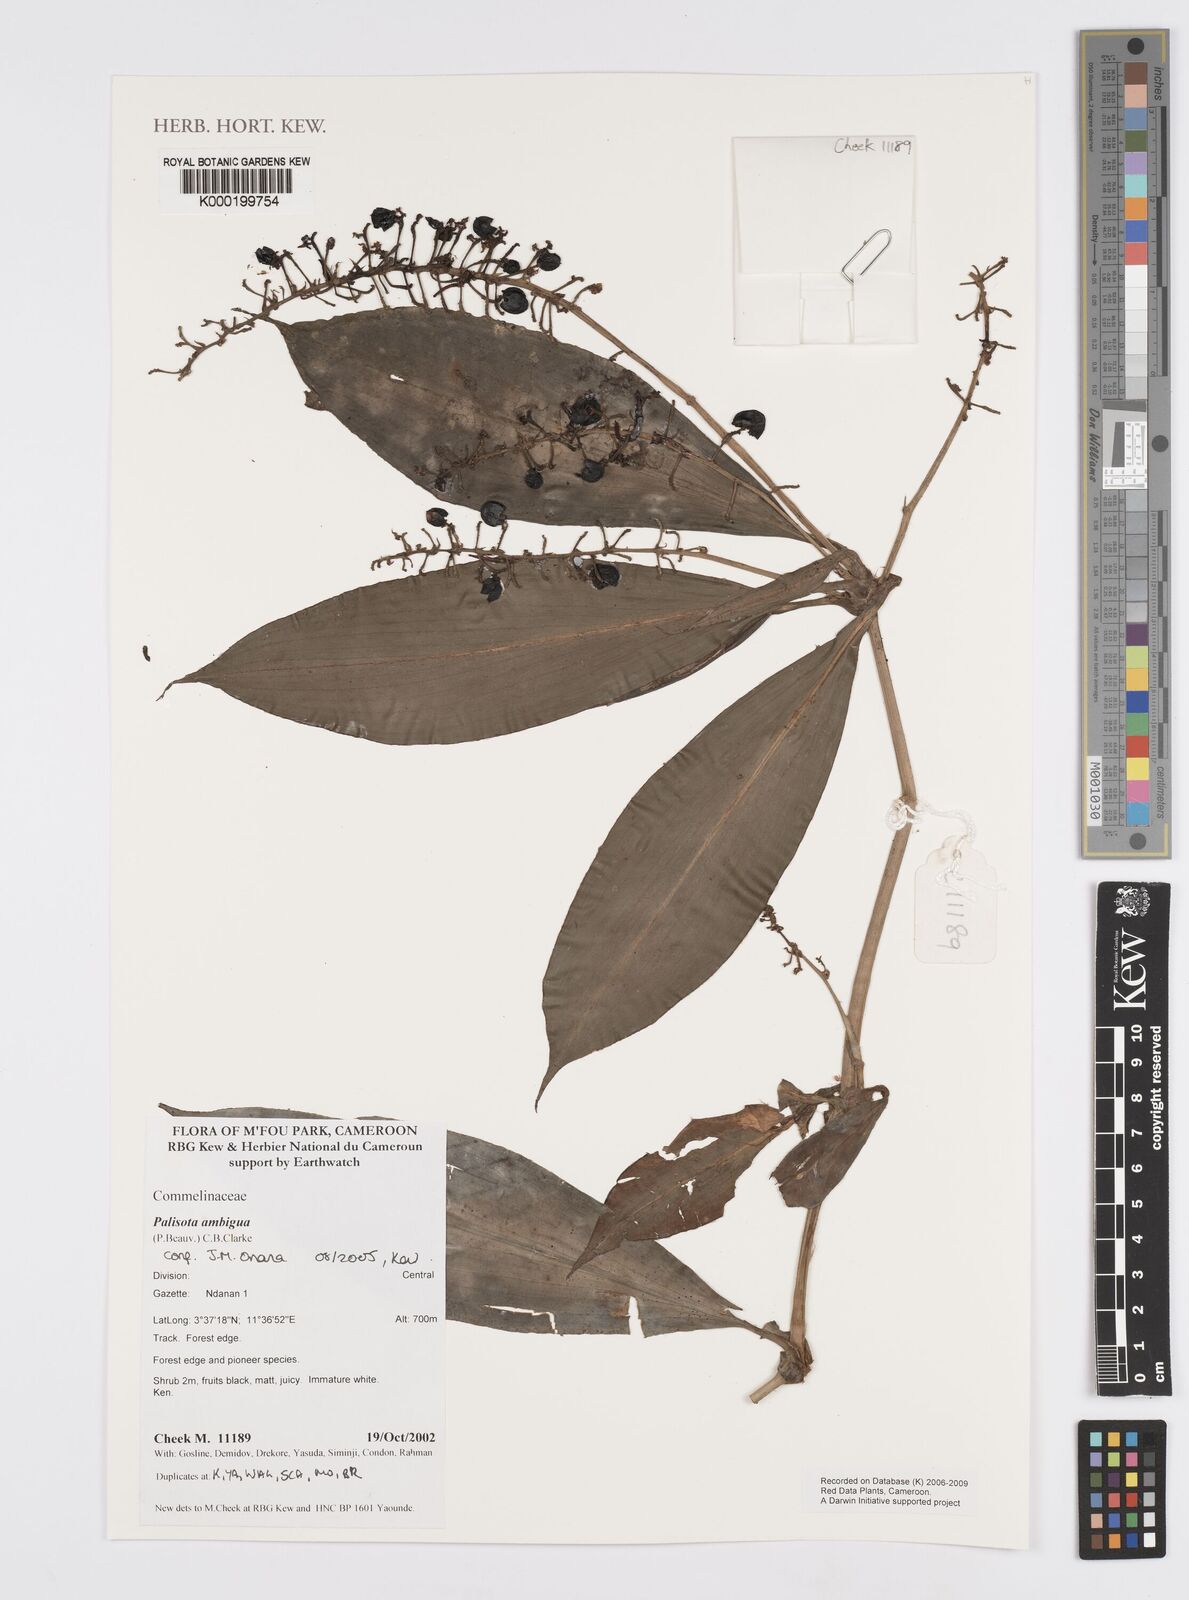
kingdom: Plantae
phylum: Tracheophyta
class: Liliopsida
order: Commelinales
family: Commelinaceae
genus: Palisota
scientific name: Palisota ambigua
